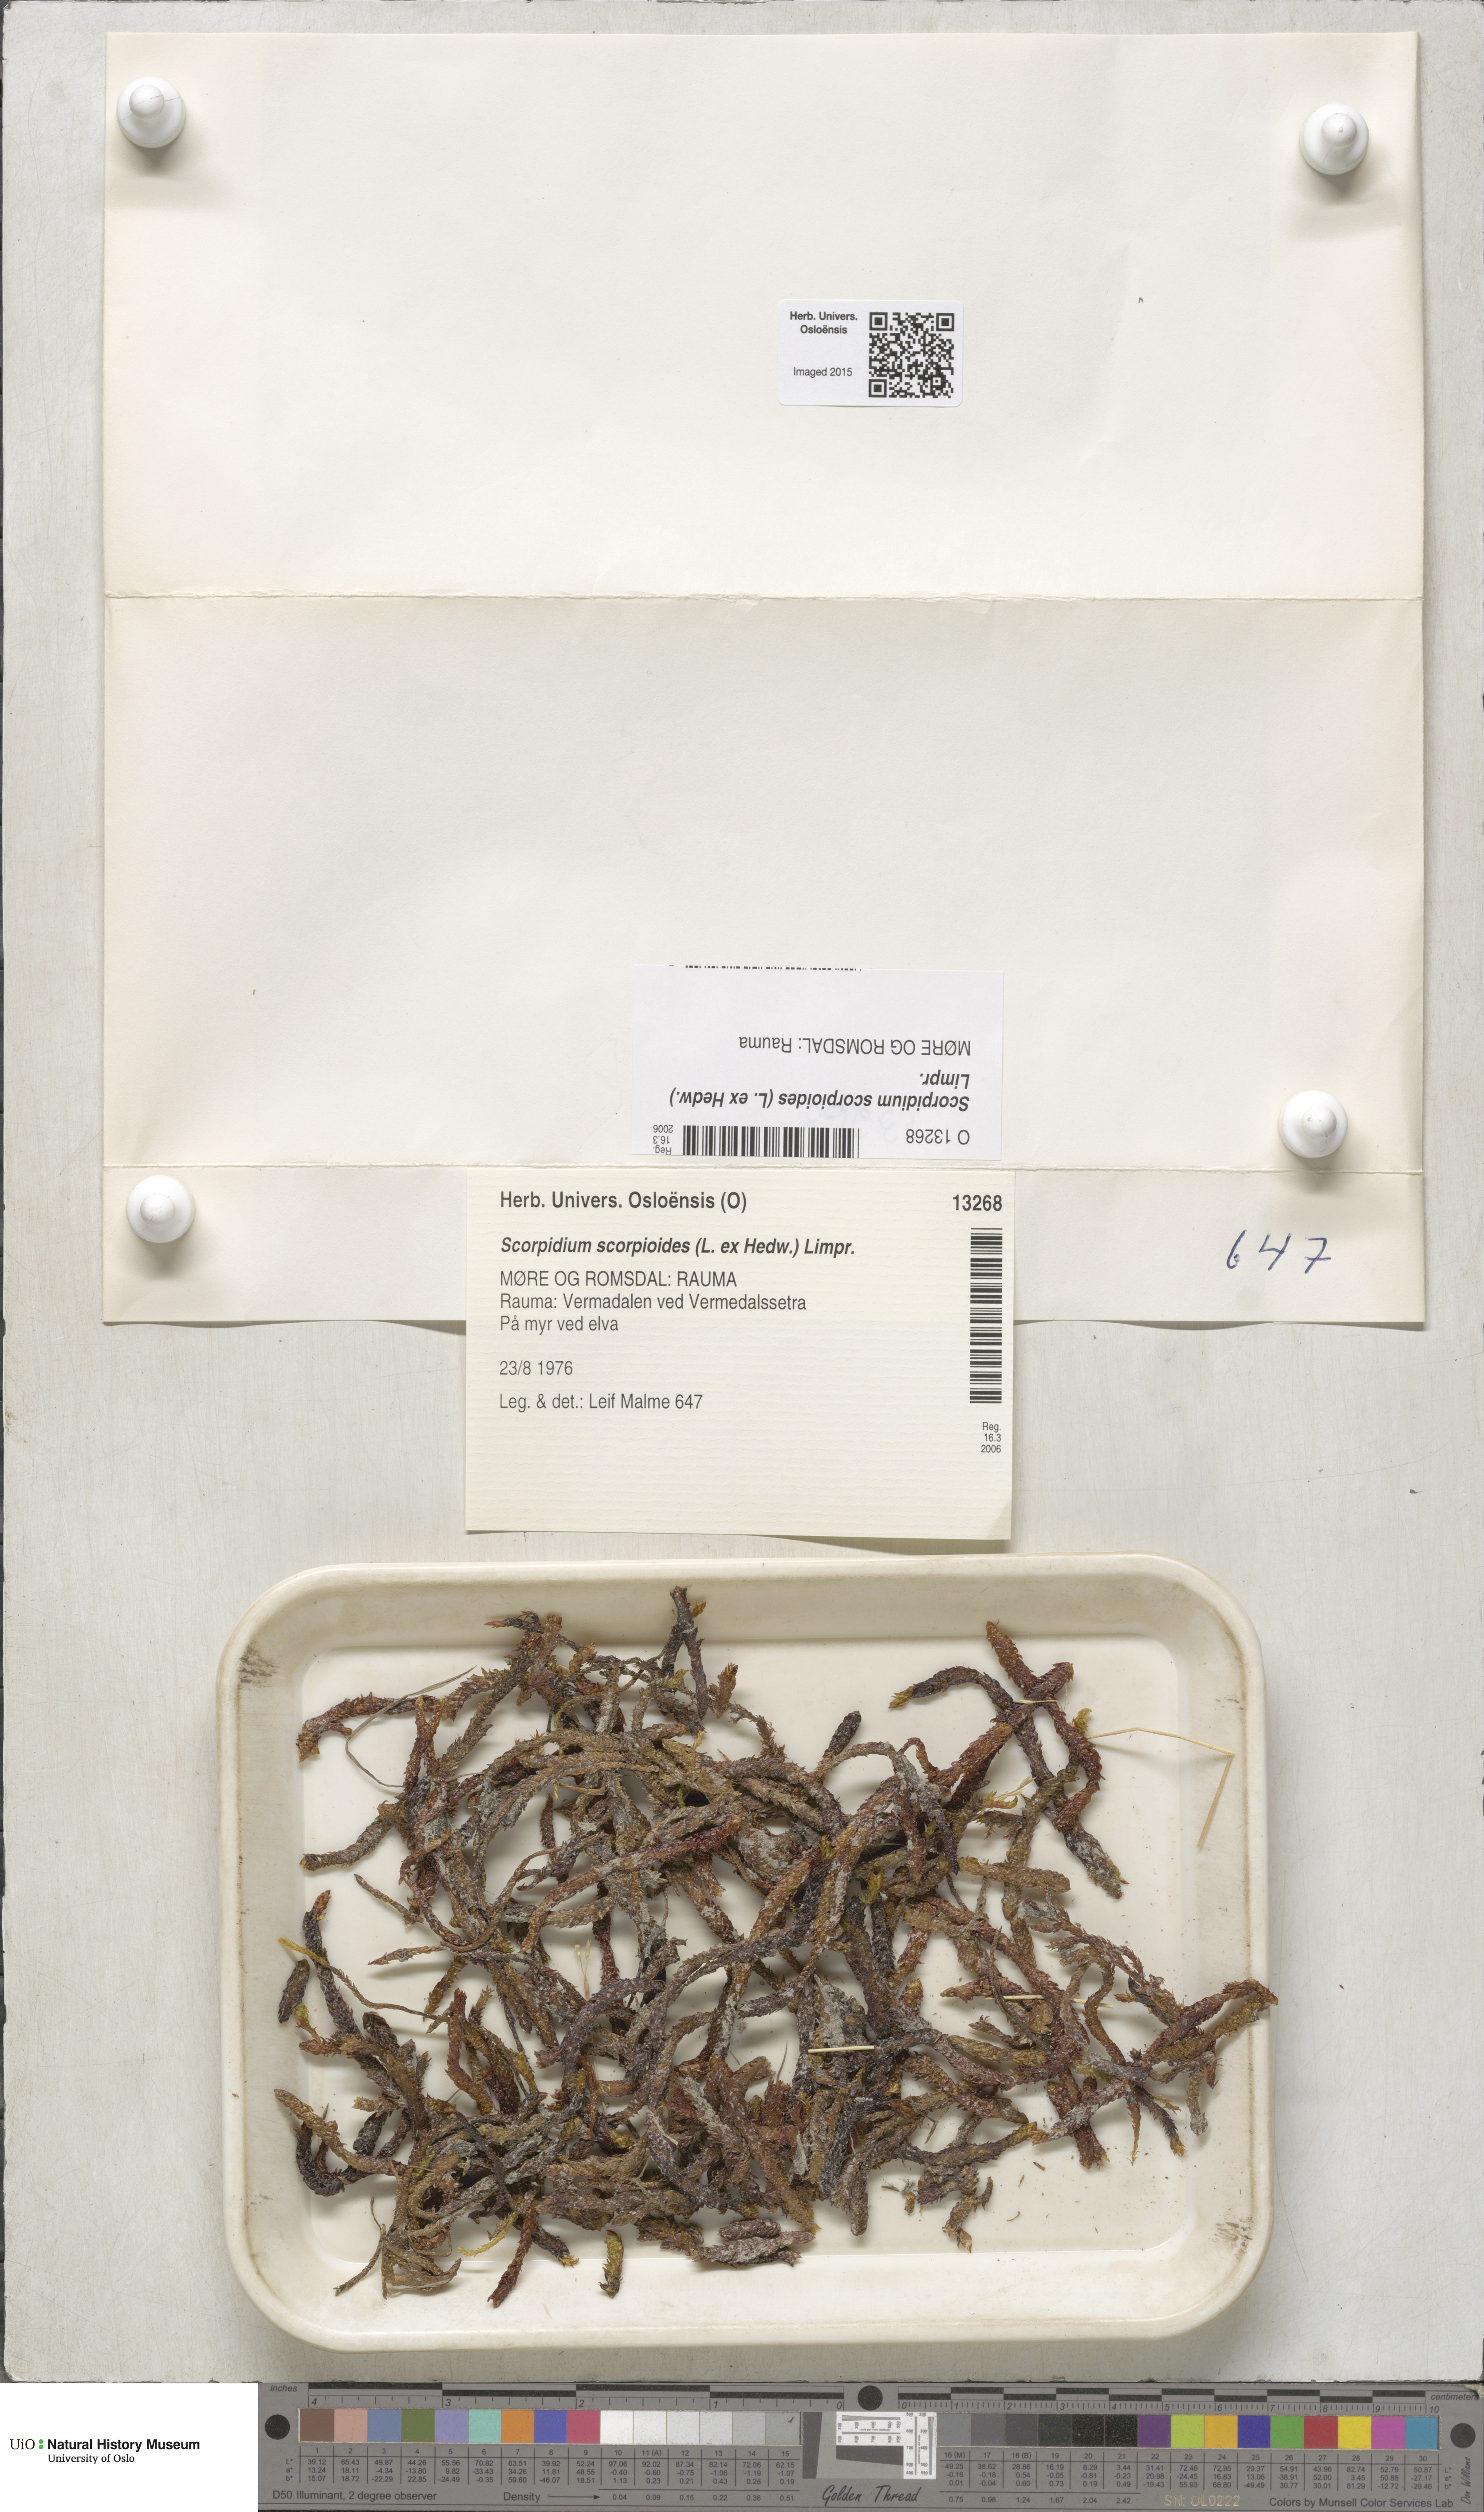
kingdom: Plantae
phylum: Bryophyta
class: Bryopsida
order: Hypnales
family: Scorpidiaceae
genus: Scorpidium
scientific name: Scorpidium scorpioides
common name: Hooked scorpion moss
